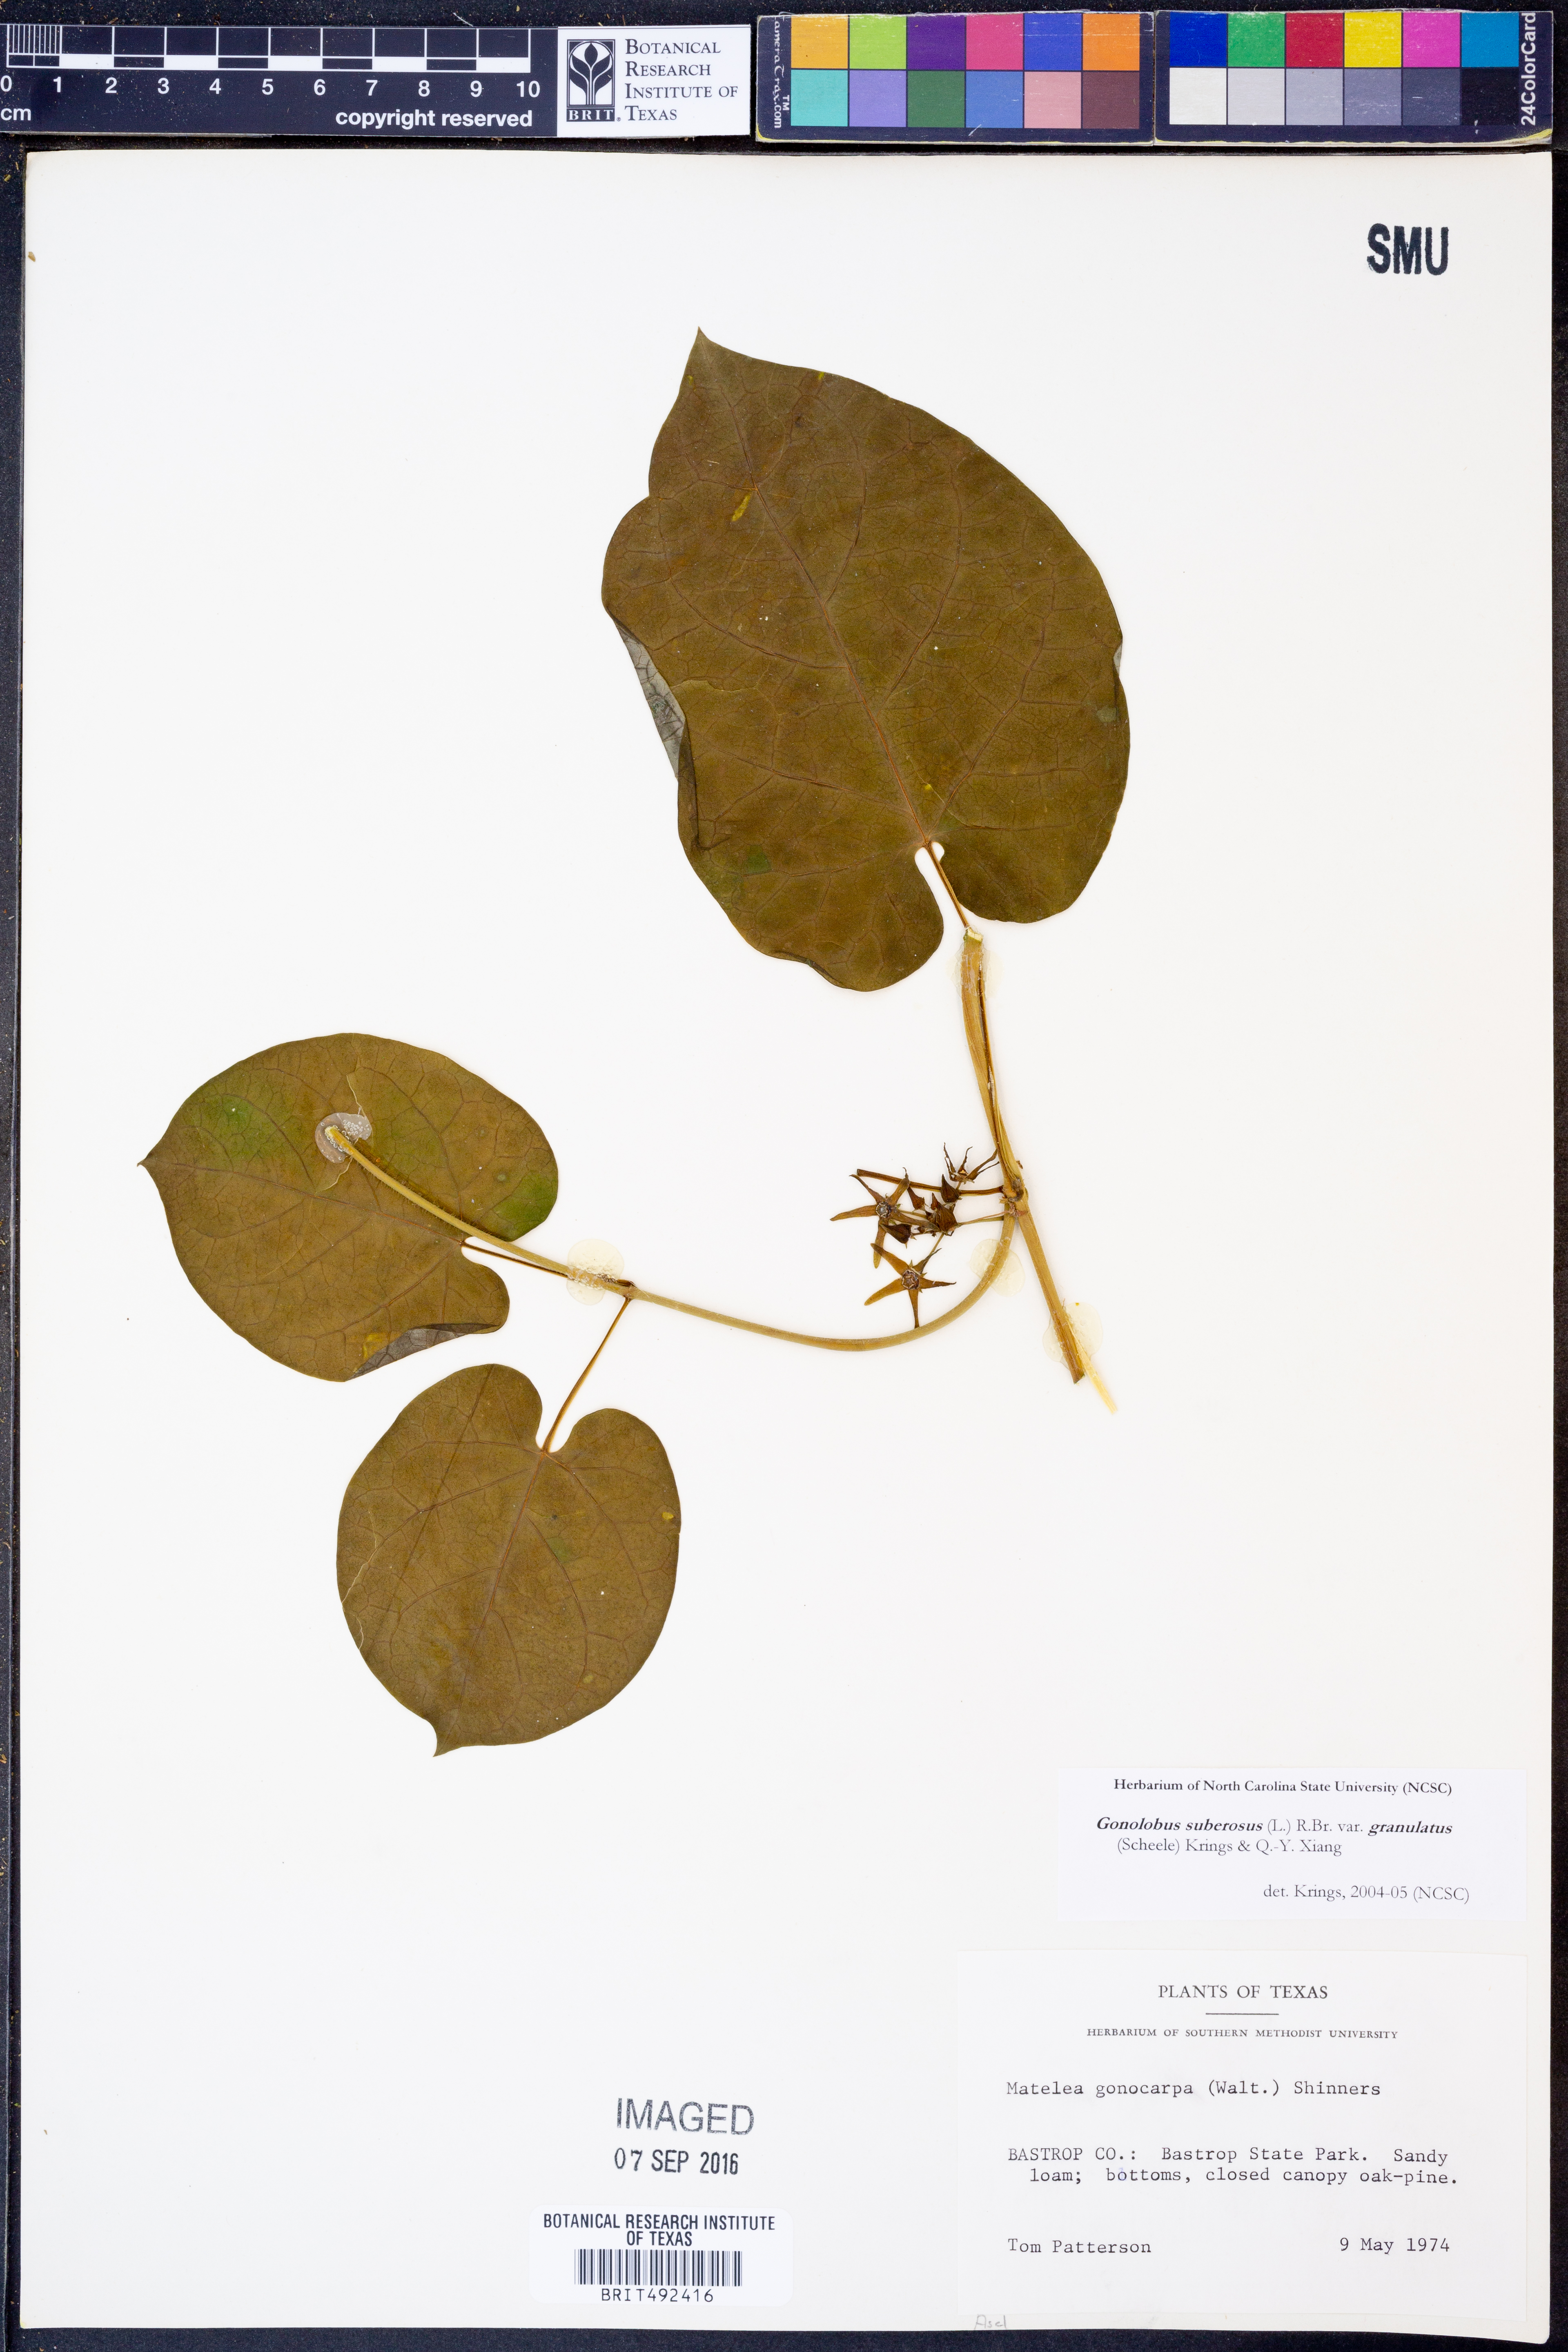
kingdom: Plantae
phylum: Tracheophyta
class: Magnoliopsida
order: Gentianales
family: Apocynaceae
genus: Gonolobus
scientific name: Gonolobus suberosus
